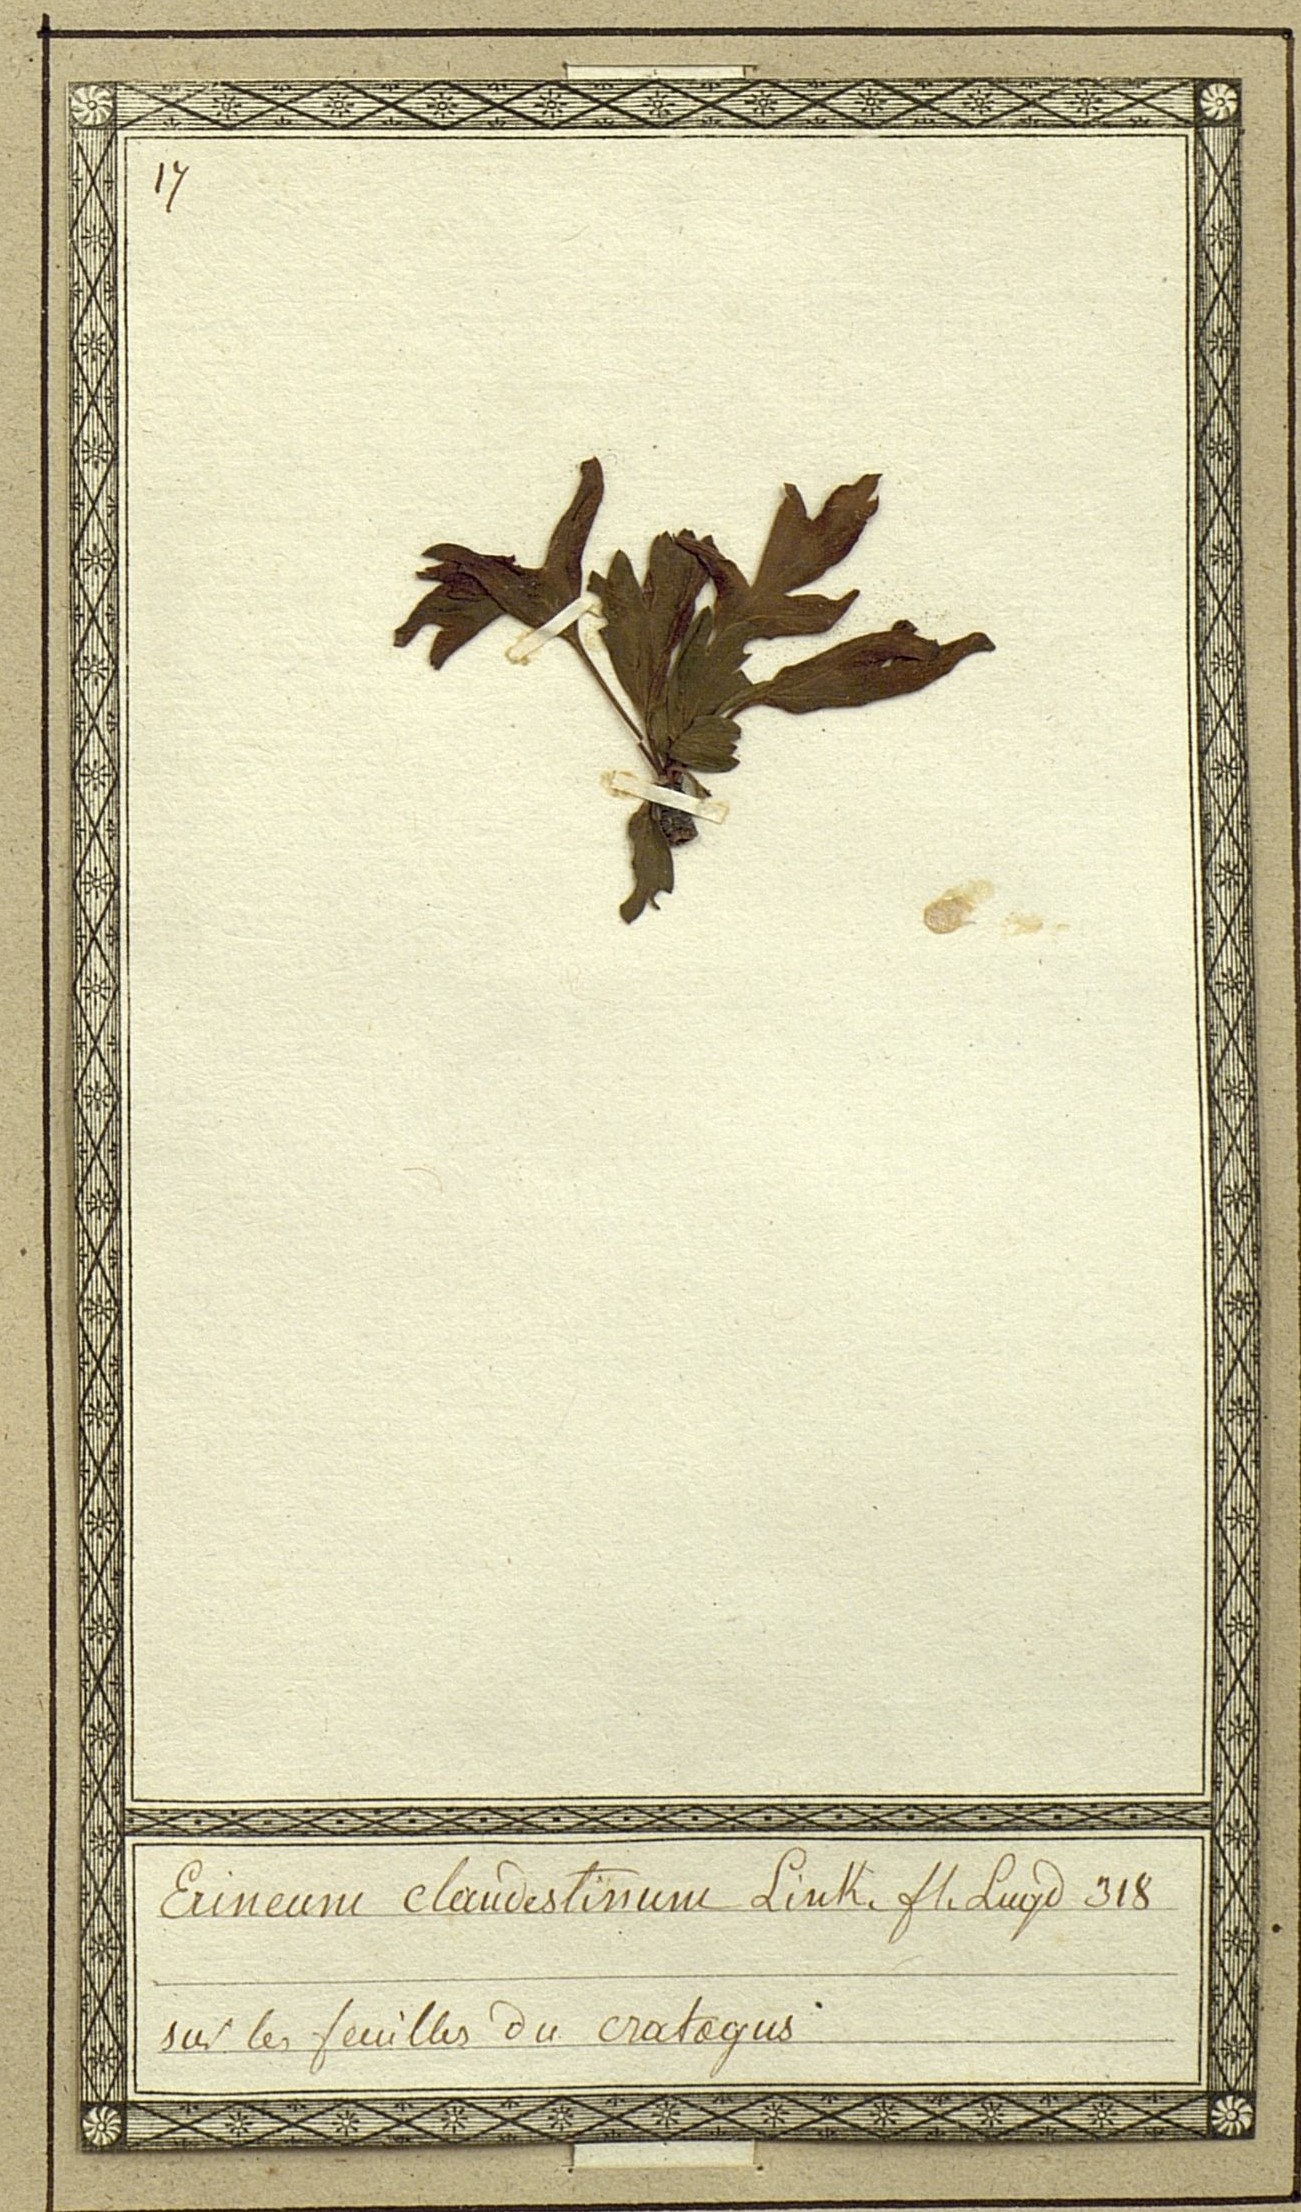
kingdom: Fungi
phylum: Basidiomycota
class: Pucciniomycetes
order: Pucciniales
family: Cronartiaceae
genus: Erineum
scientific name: Erineum
